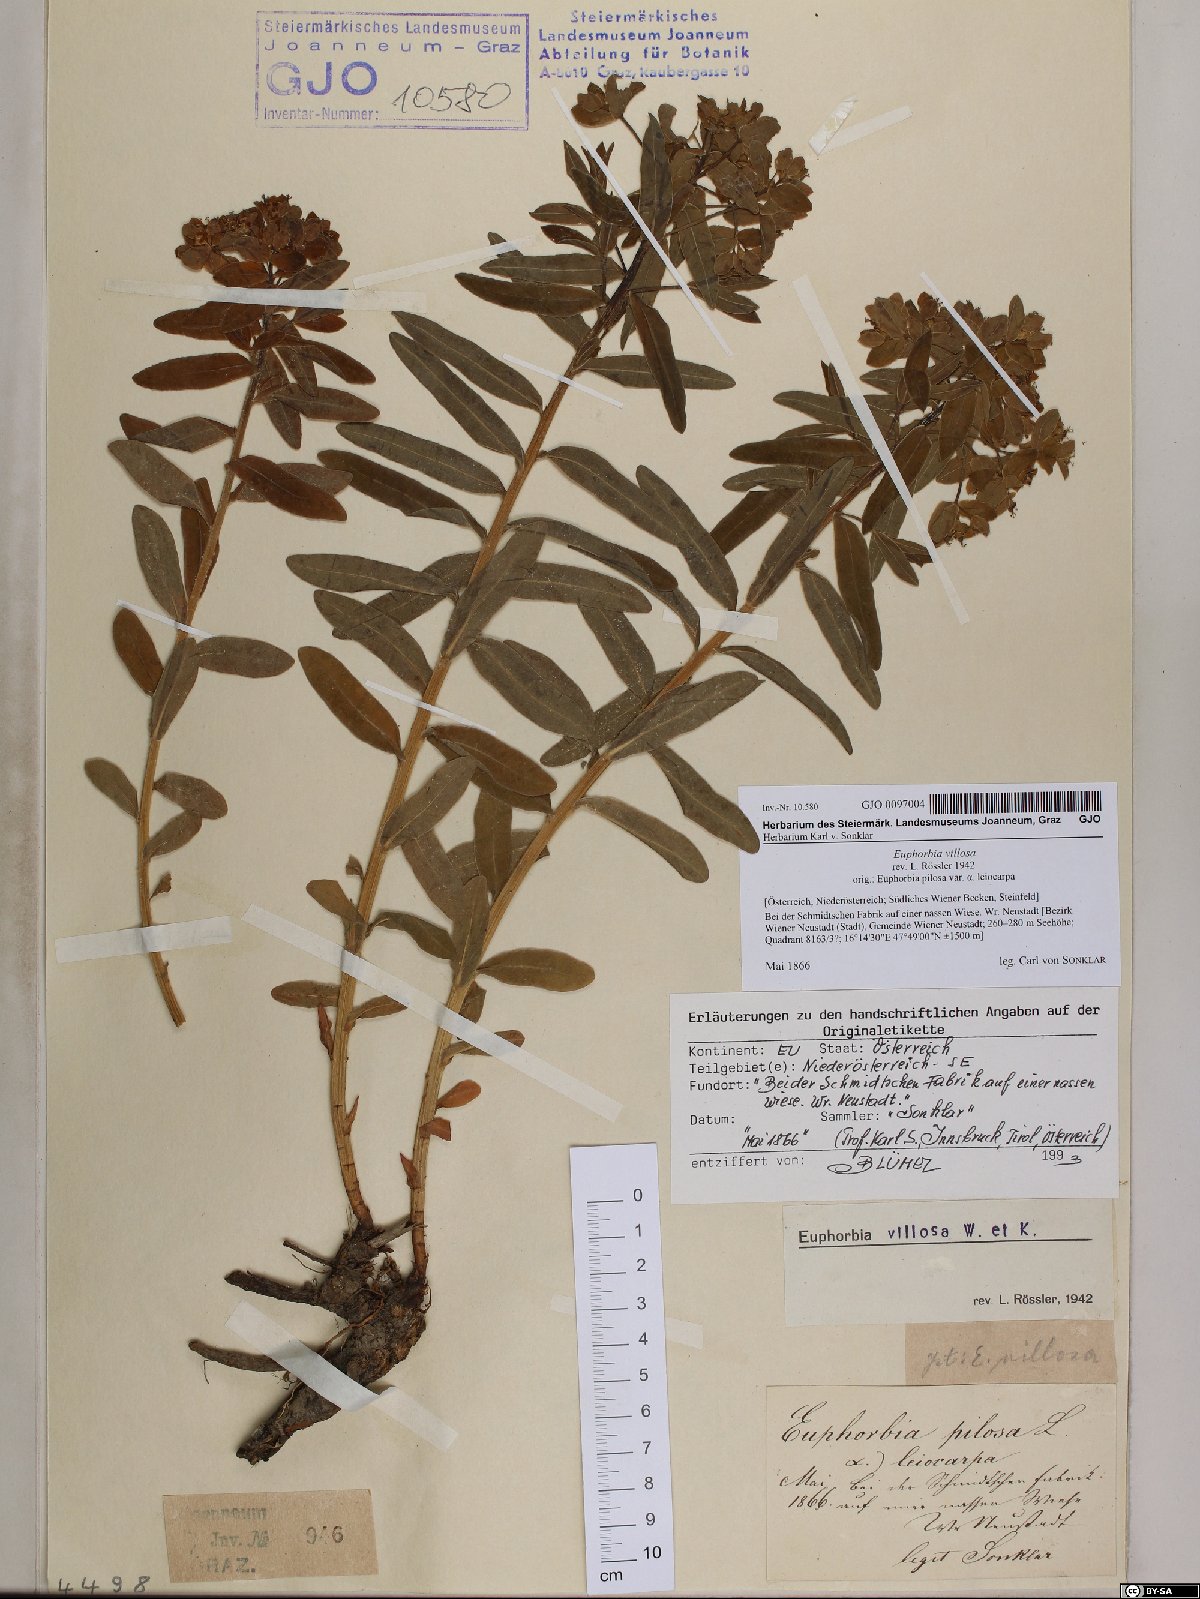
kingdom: Plantae
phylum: Tracheophyta
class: Magnoliopsida
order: Malpighiales
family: Euphorbiaceae
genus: Euphorbia
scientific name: Euphorbia illirica
